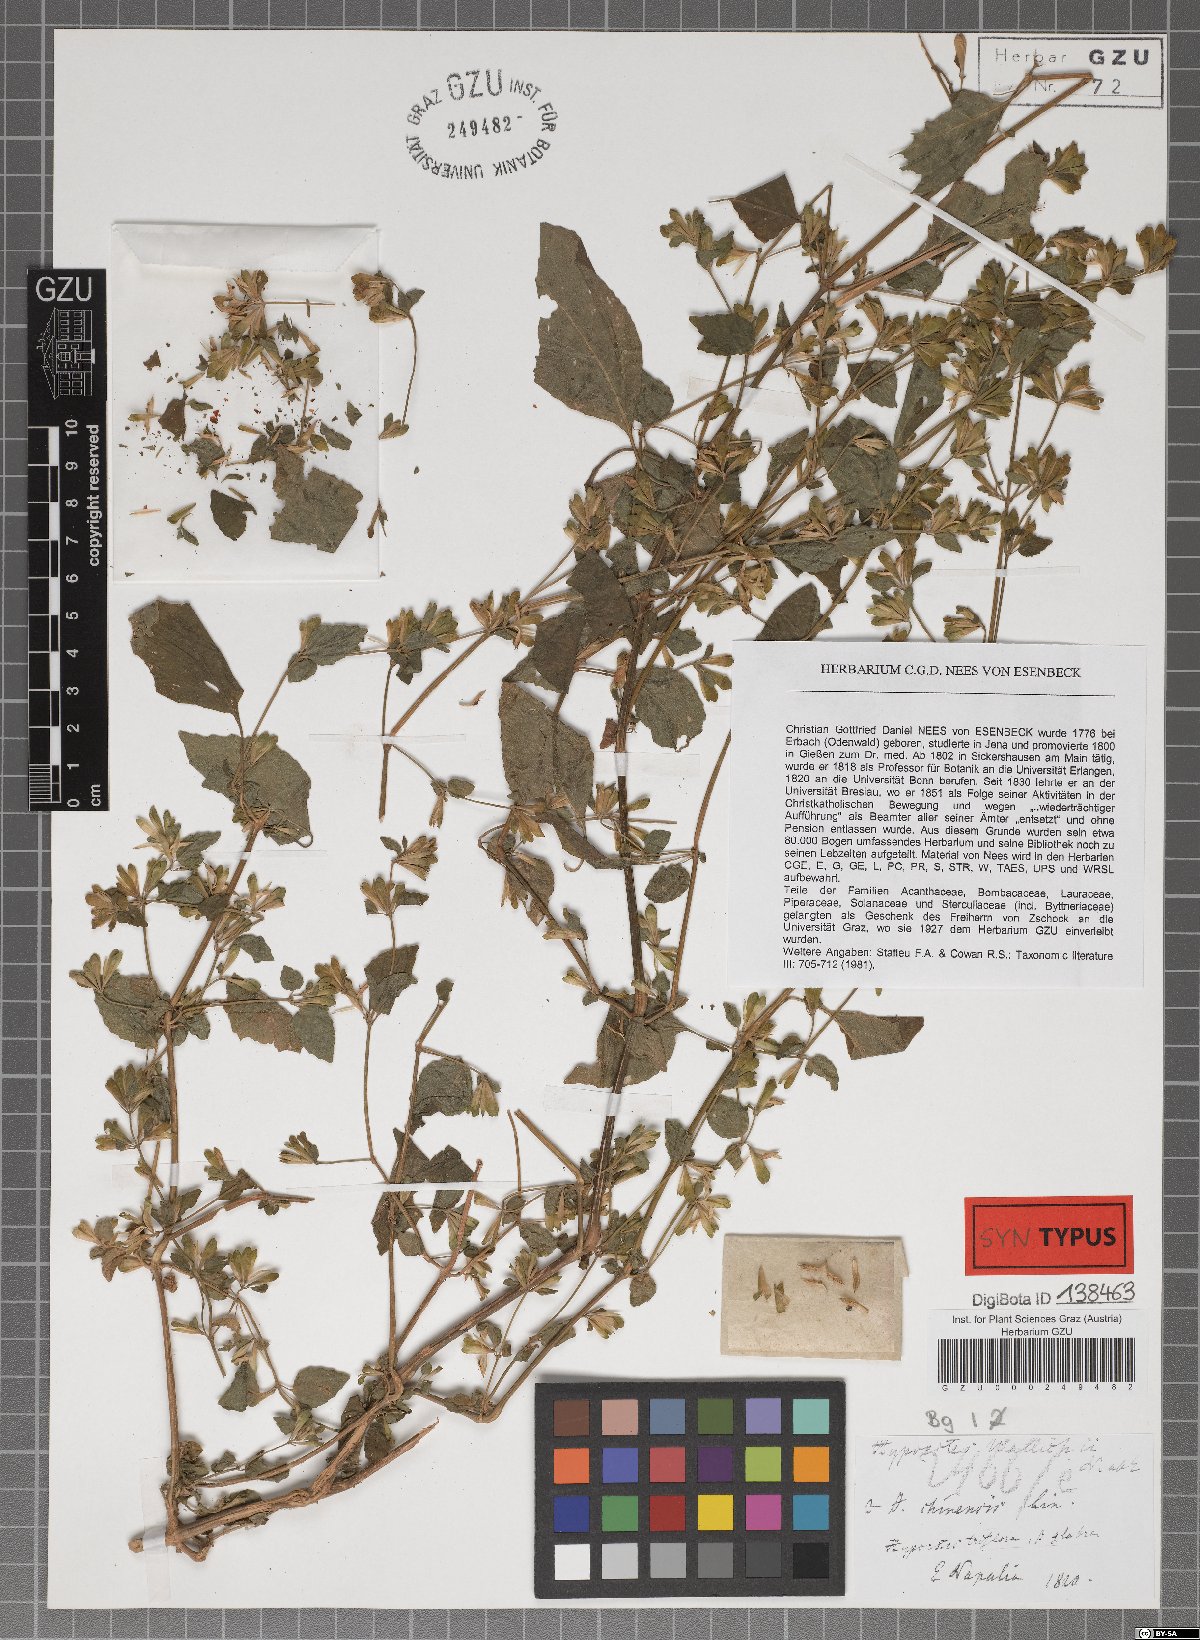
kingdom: Plantae
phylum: Tracheophyta
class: Magnoliopsida
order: Lamiales
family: Acanthaceae
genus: Hypoestes
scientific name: Hypoestes triflora
